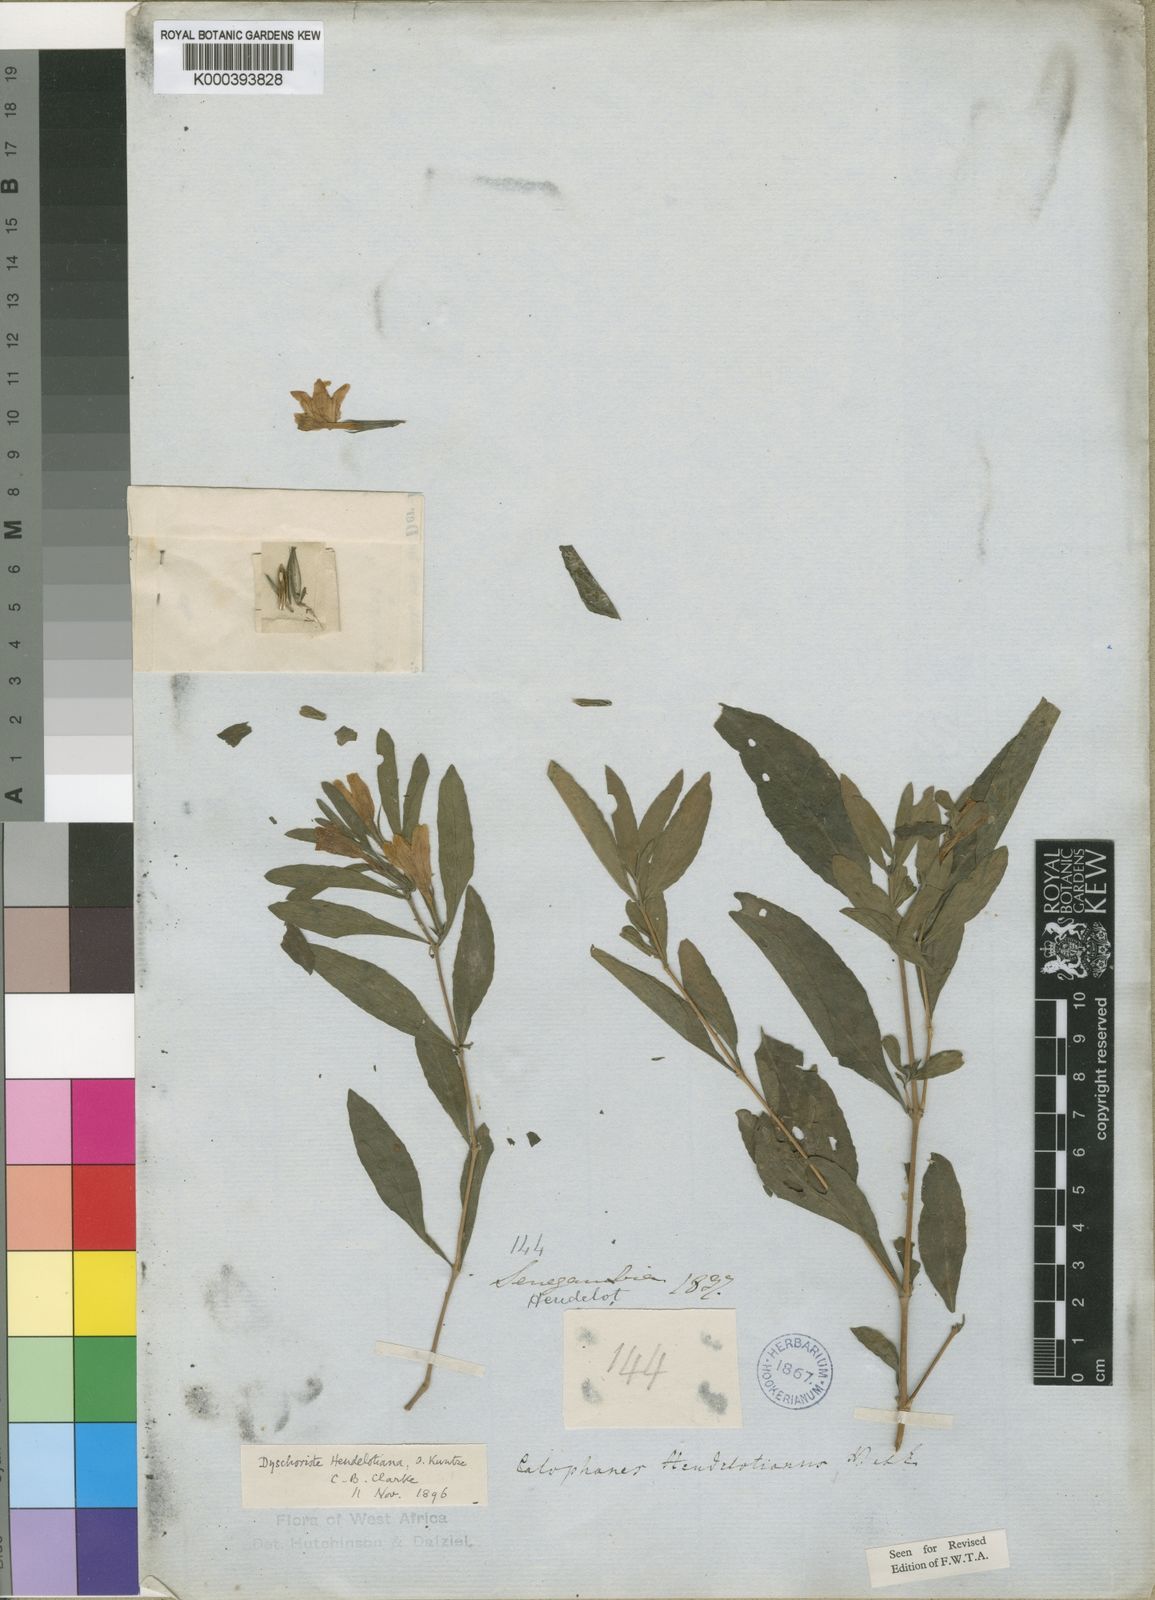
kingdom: Plantae
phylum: Tracheophyta
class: Magnoliopsida
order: Lamiales
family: Acanthaceae
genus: Dyschoriste
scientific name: Dyschoriste heudelotiana
